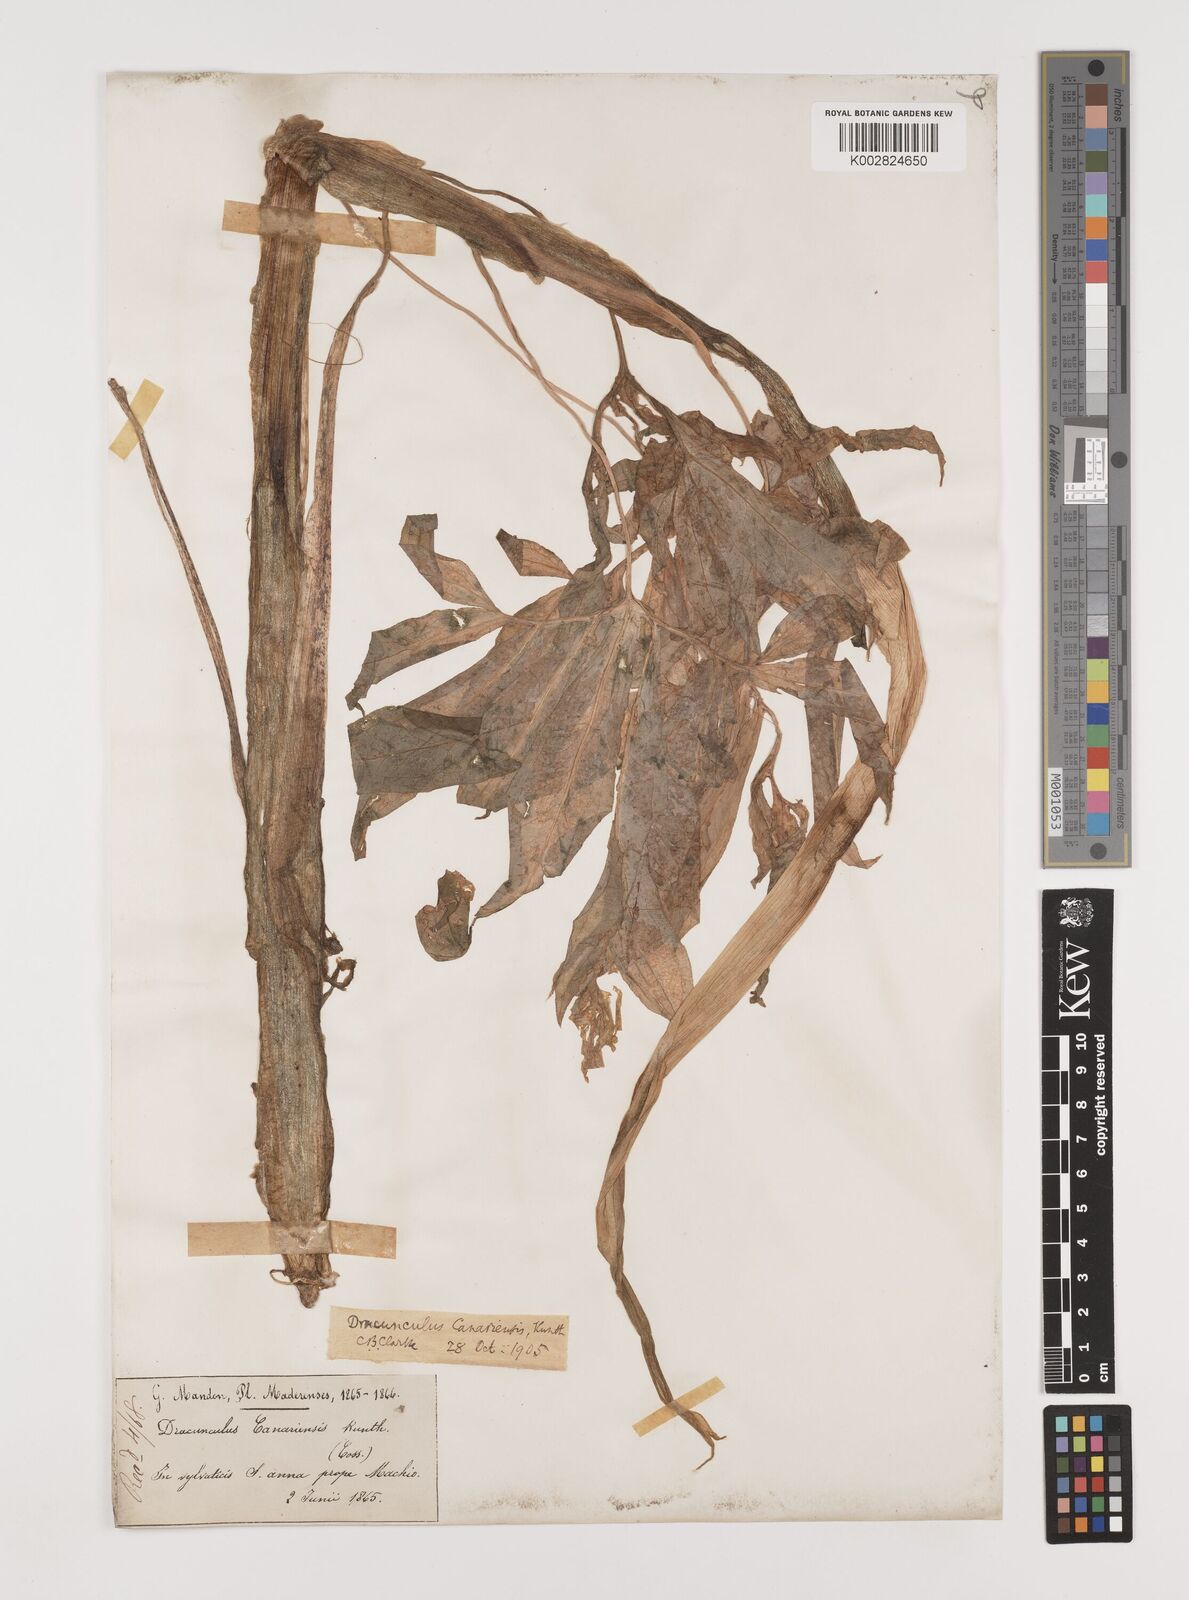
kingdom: Plantae
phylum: Tracheophyta
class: Liliopsida
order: Alismatales
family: Araceae
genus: Dracunculus
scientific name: Dracunculus canariensis
